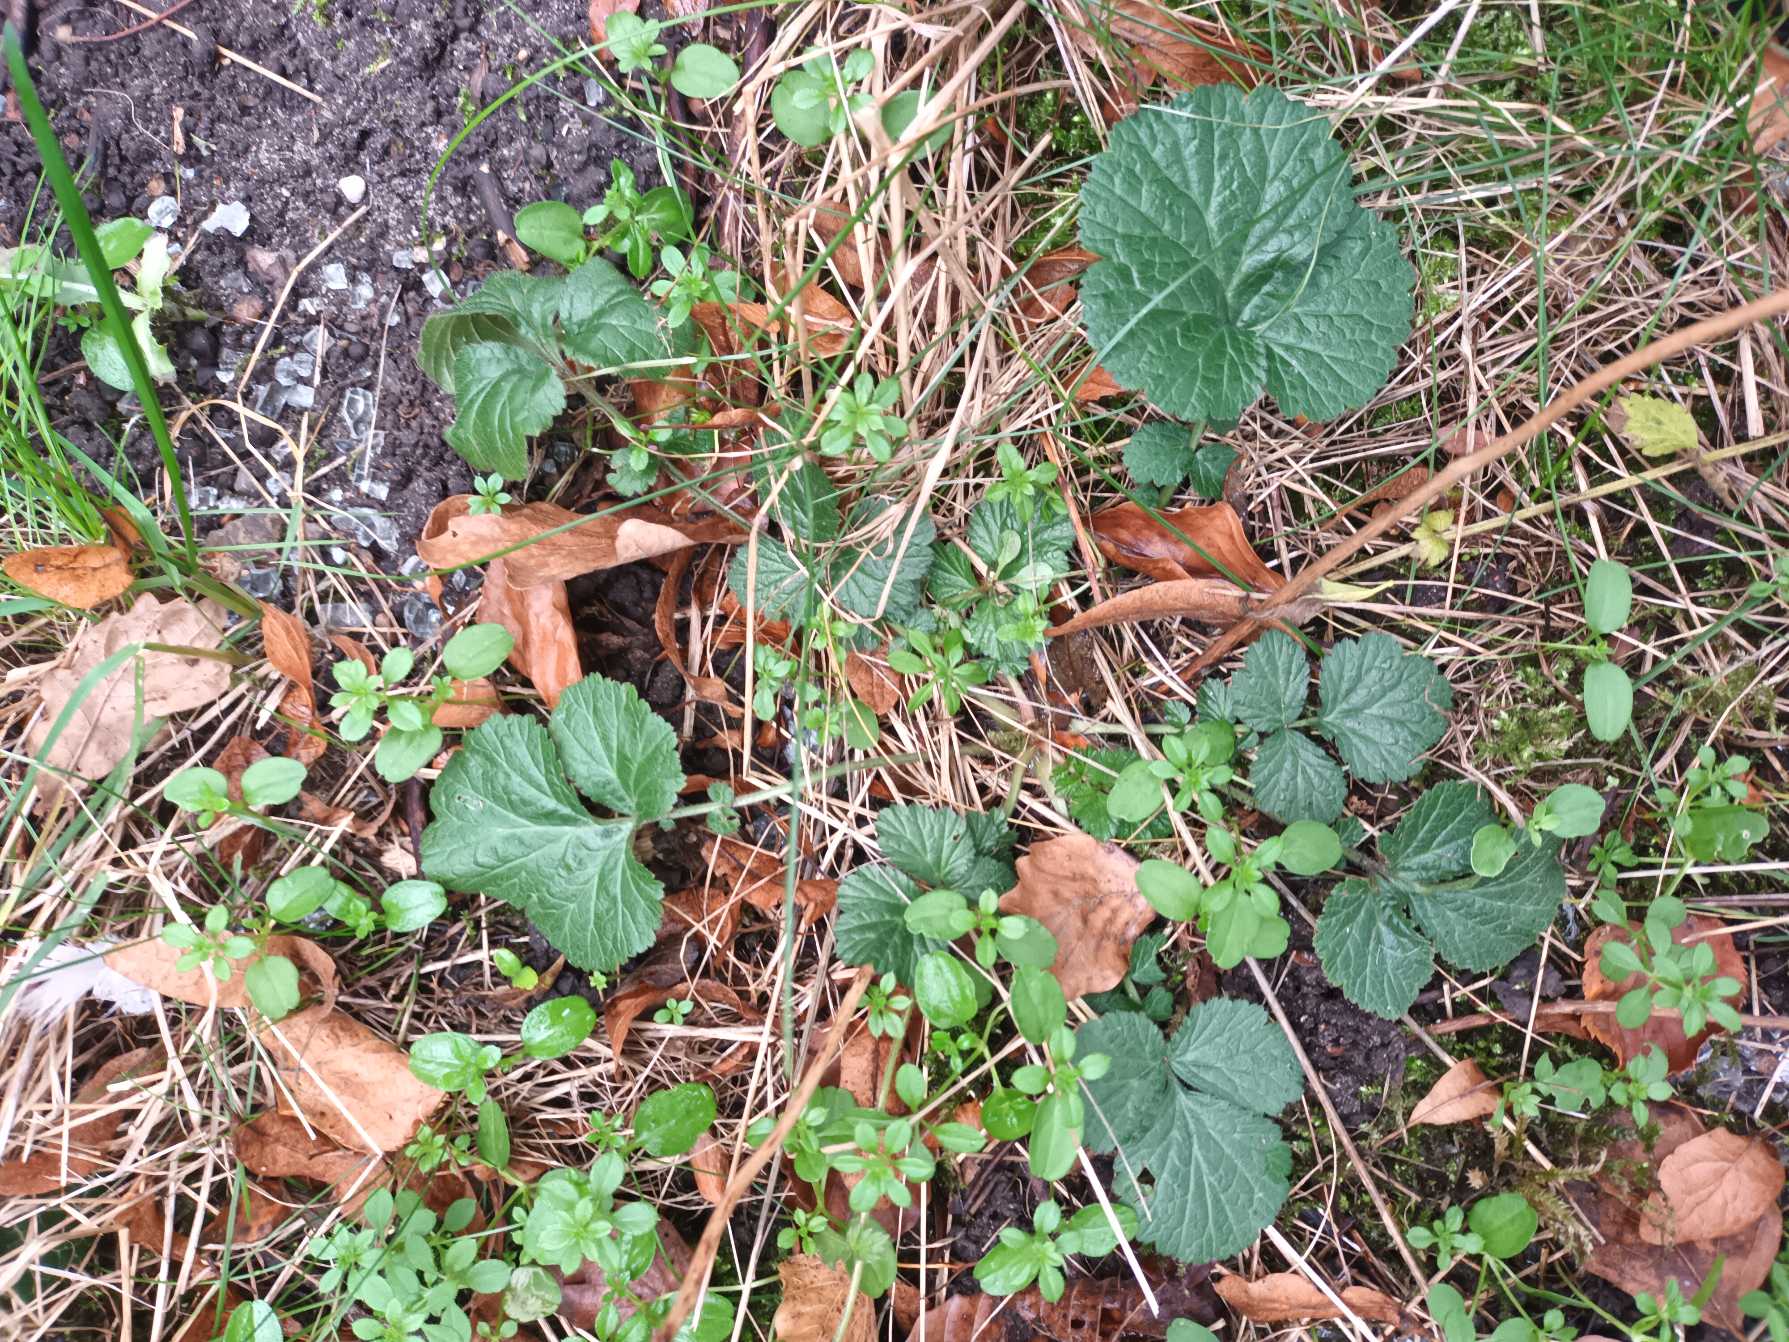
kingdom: Plantae
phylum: Tracheophyta
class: Magnoliopsida
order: Rosales
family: Rosaceae
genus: Geum
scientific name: Geum urbanum
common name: Feber-nellikerod
